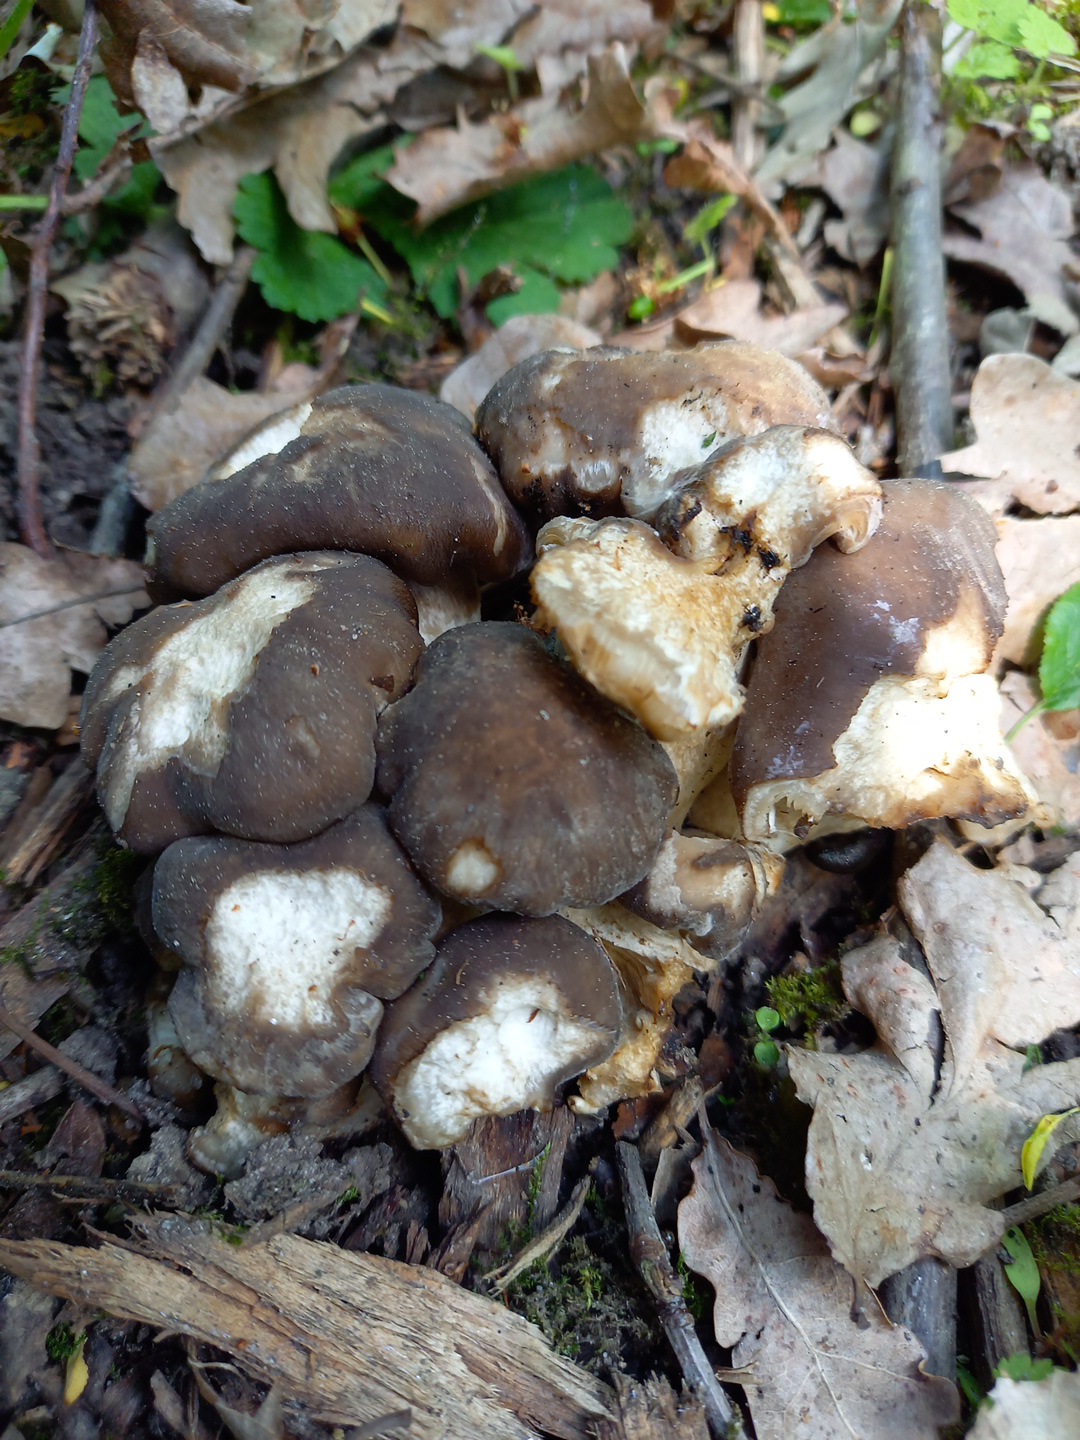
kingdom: Fungi
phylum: Basidiomycota
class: Agaricomycetes
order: Agaricales
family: Lyophyllaceae
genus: Lyophyllum
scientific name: Lyophyllum decastes
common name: røggrå gråblad
